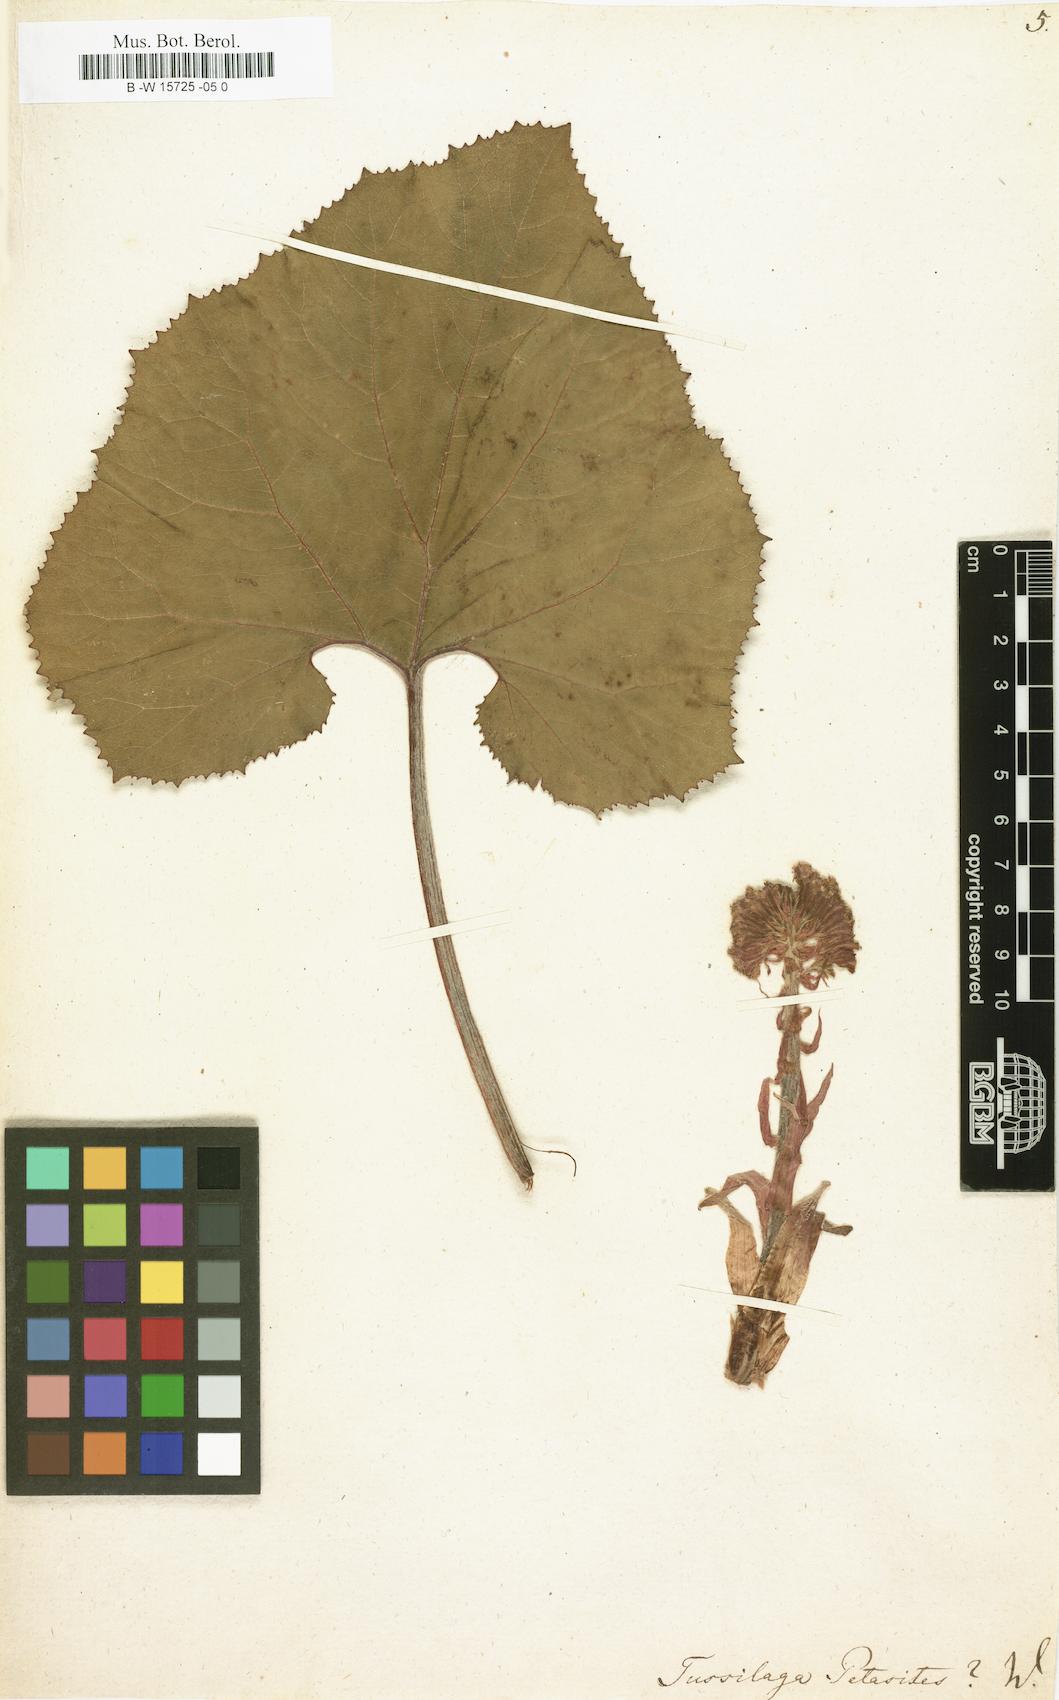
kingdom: Plantae
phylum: Tracheophyta
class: Magnoliopsida
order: Asterales
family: Asteraceae
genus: Petasites
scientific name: Petasites japonicus
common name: Giant butterbur
